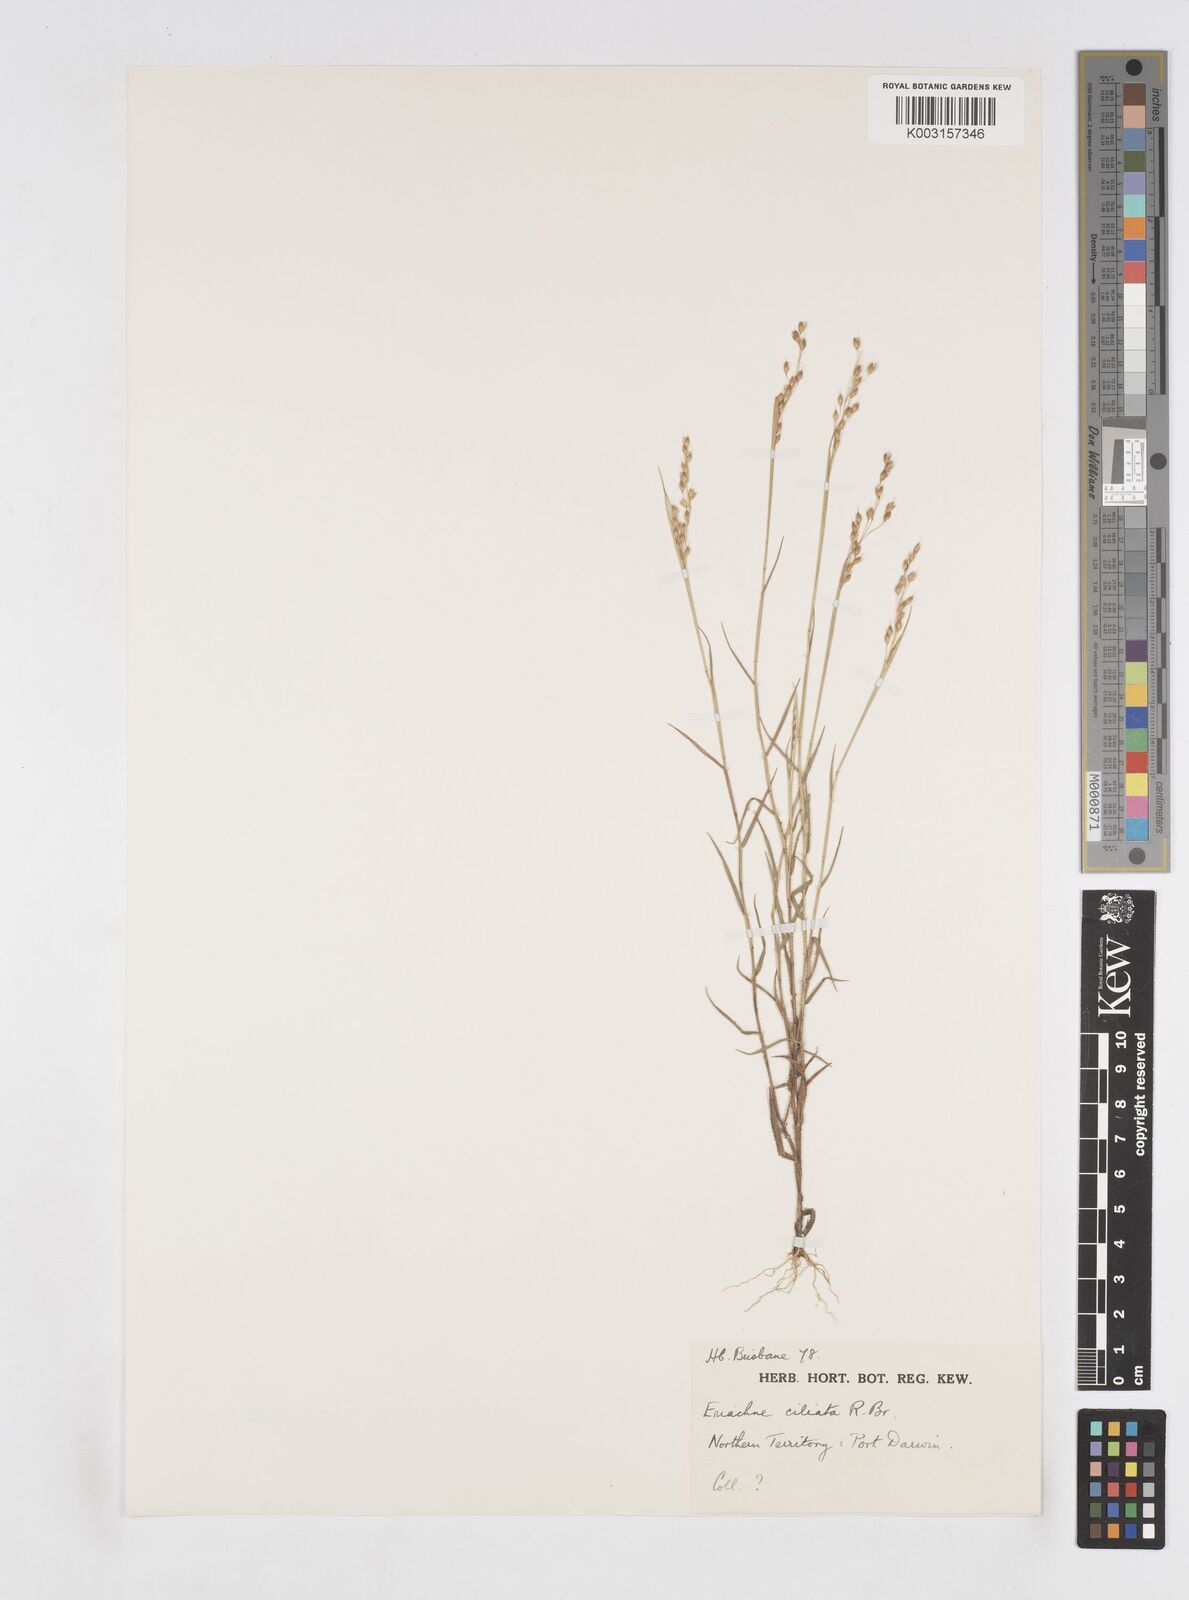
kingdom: Plantae
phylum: Tracheophyta
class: Liliopsida
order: Poales
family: Poaceae
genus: Eriachne
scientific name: Eriachne ciliata
